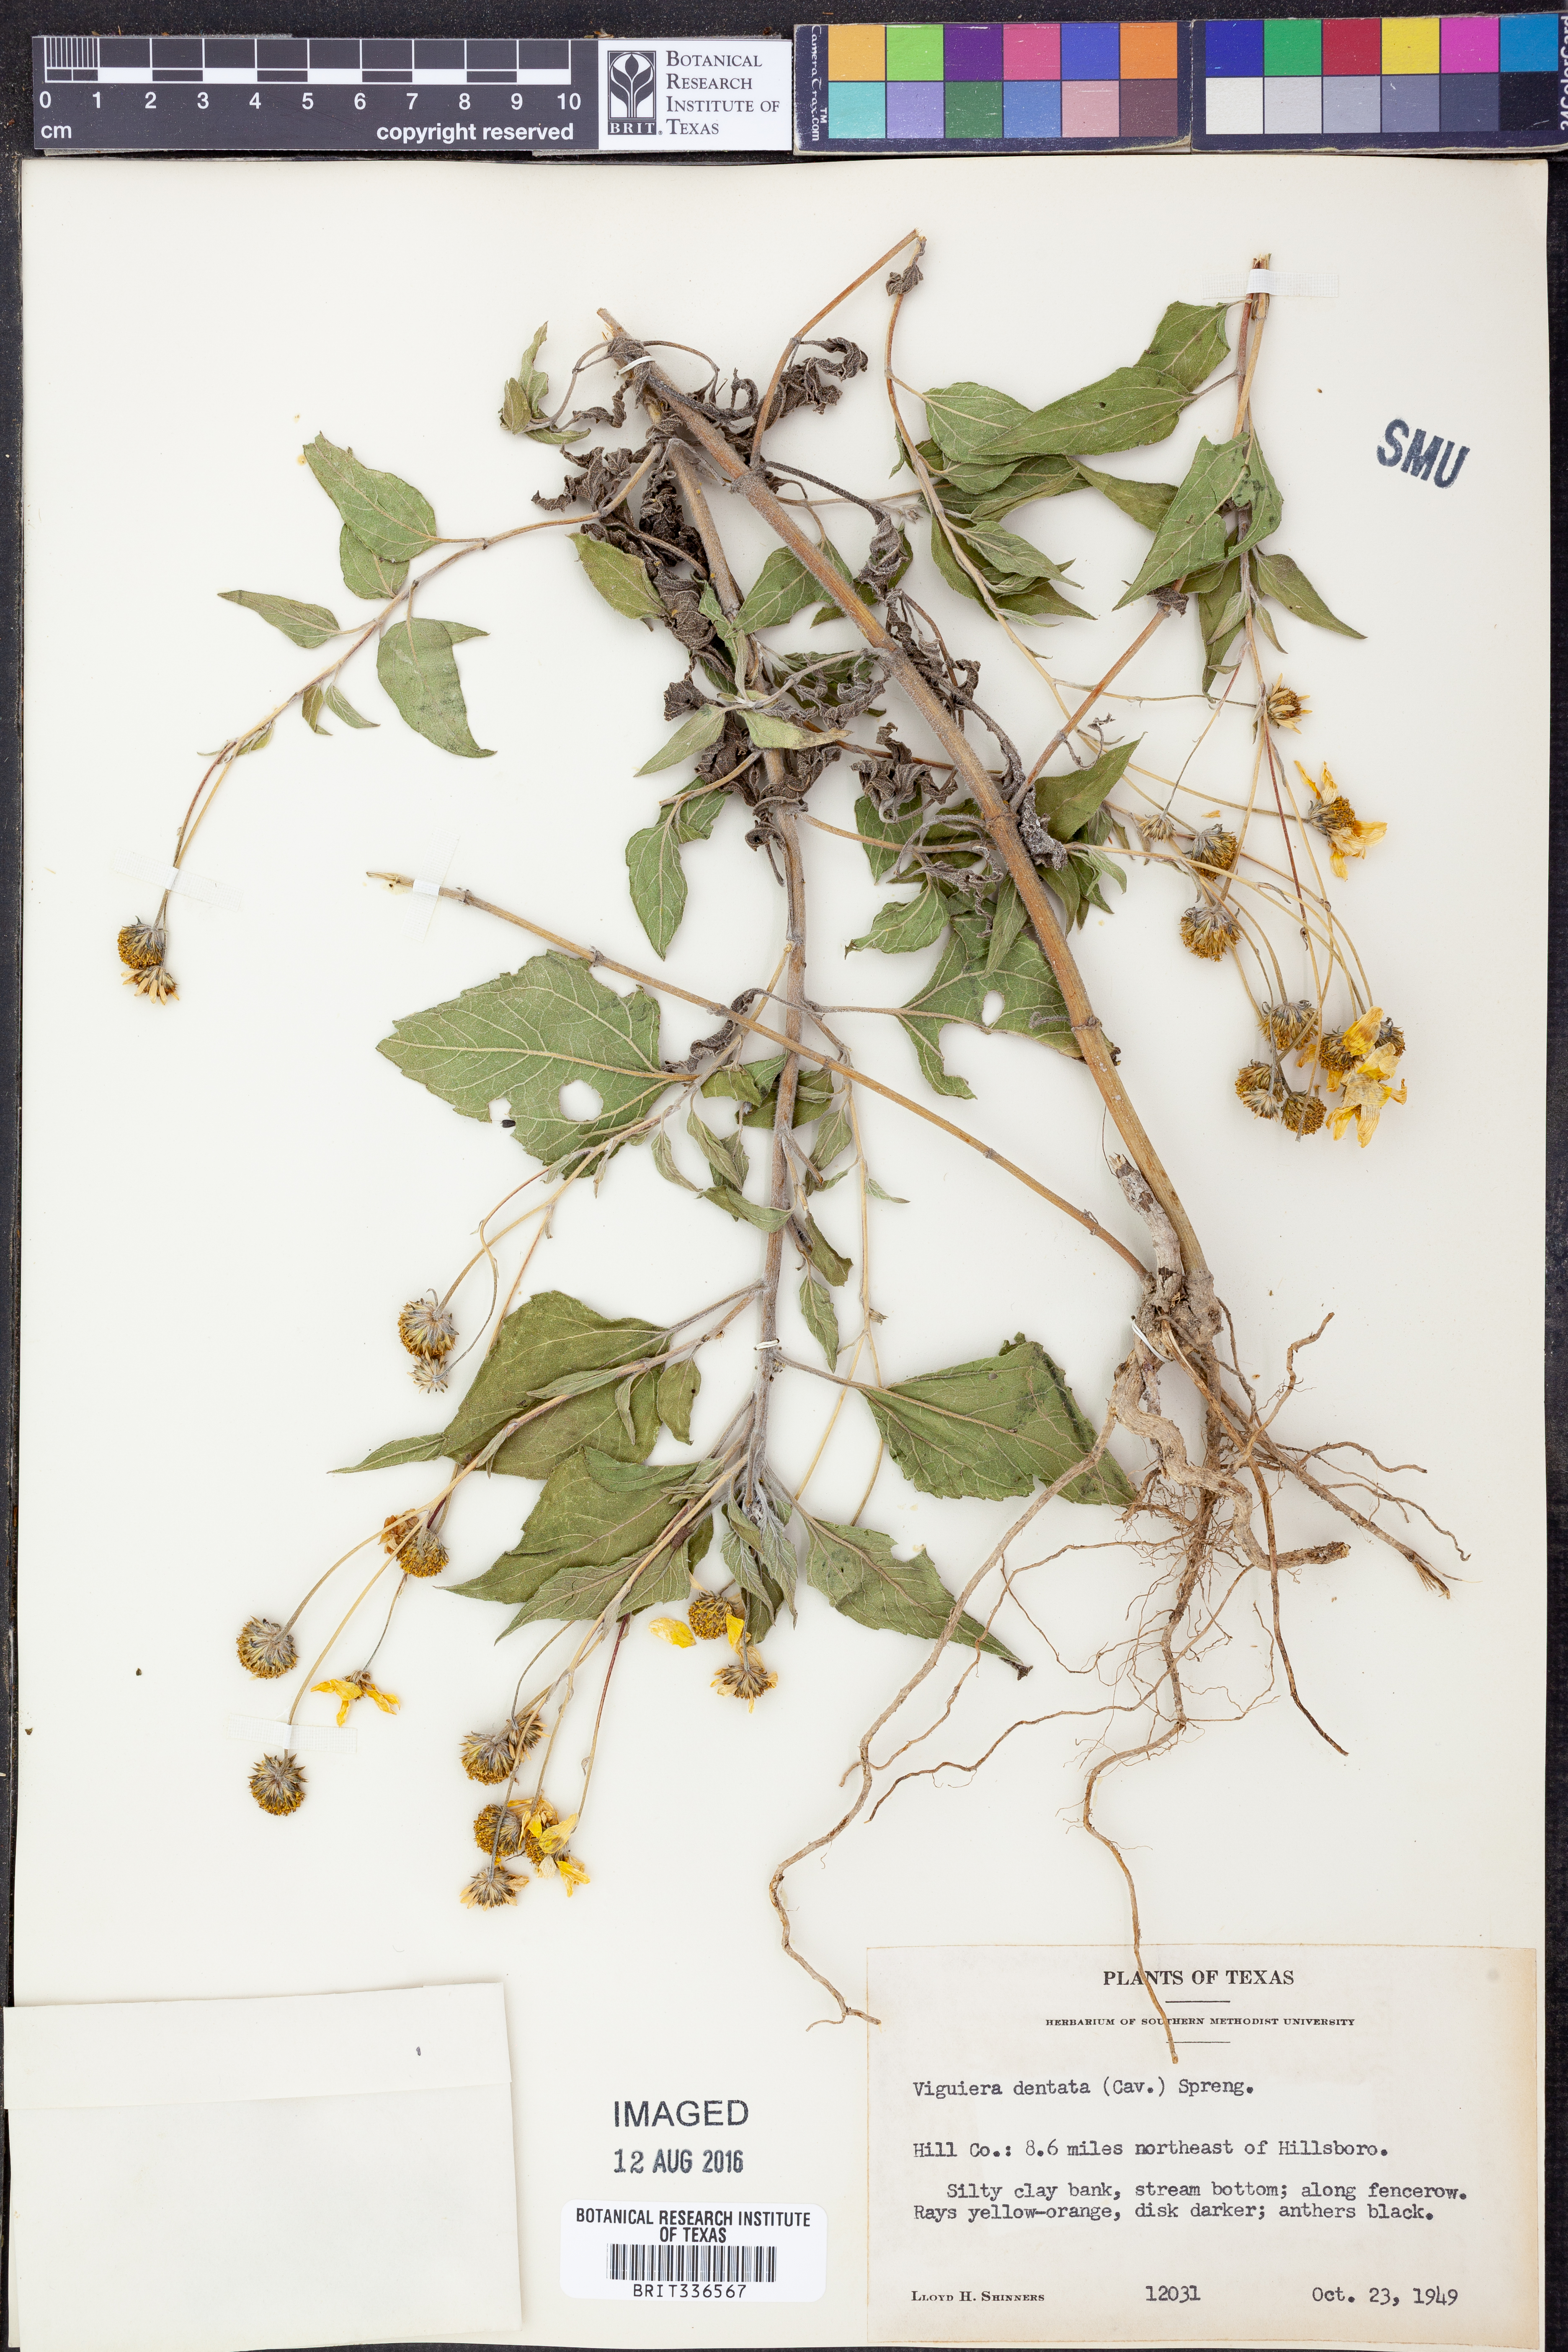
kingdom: Plantae
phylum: Tracheophyta
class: Magnoliopsida
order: Asterales
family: Asteraceae
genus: Viguiera
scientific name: Viguiera dentata
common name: Toothleaf
